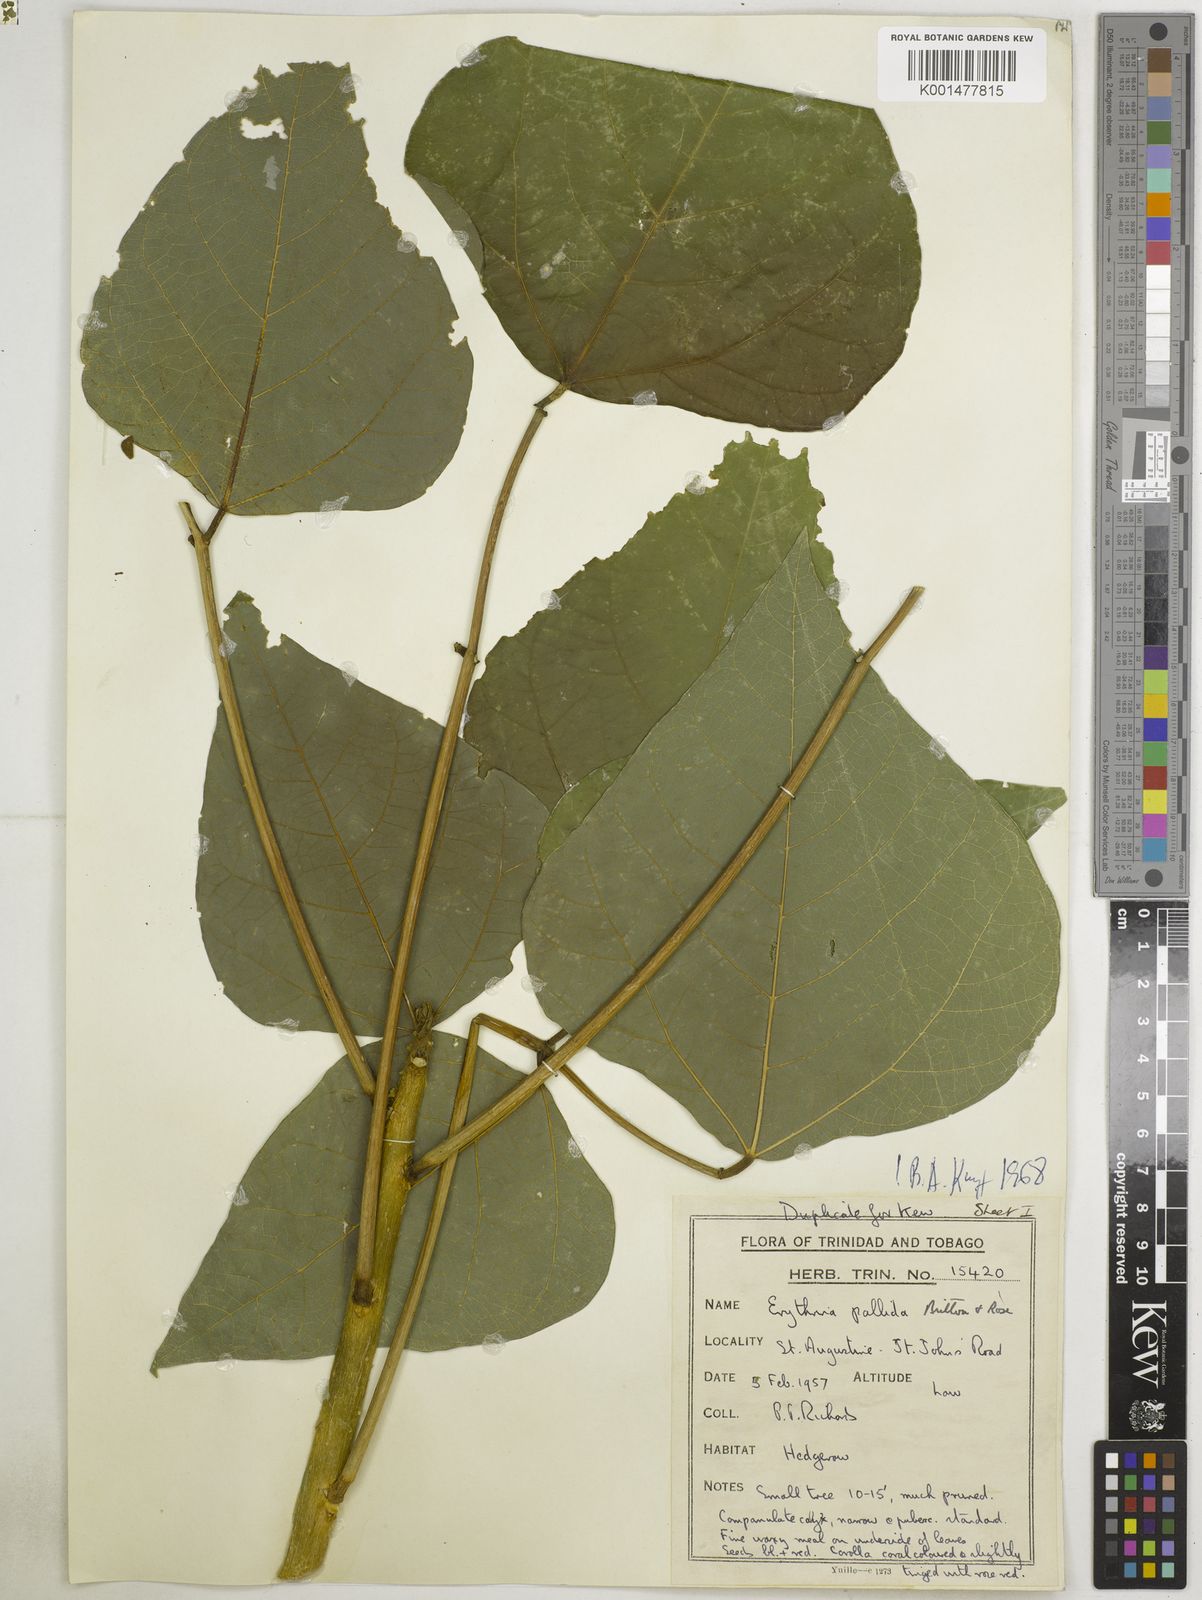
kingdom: Plantae
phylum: Tracheophyta
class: Magnoliopsida
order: Fabales
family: Fabaceae
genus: Erythrina
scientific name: Erythrina pallida
